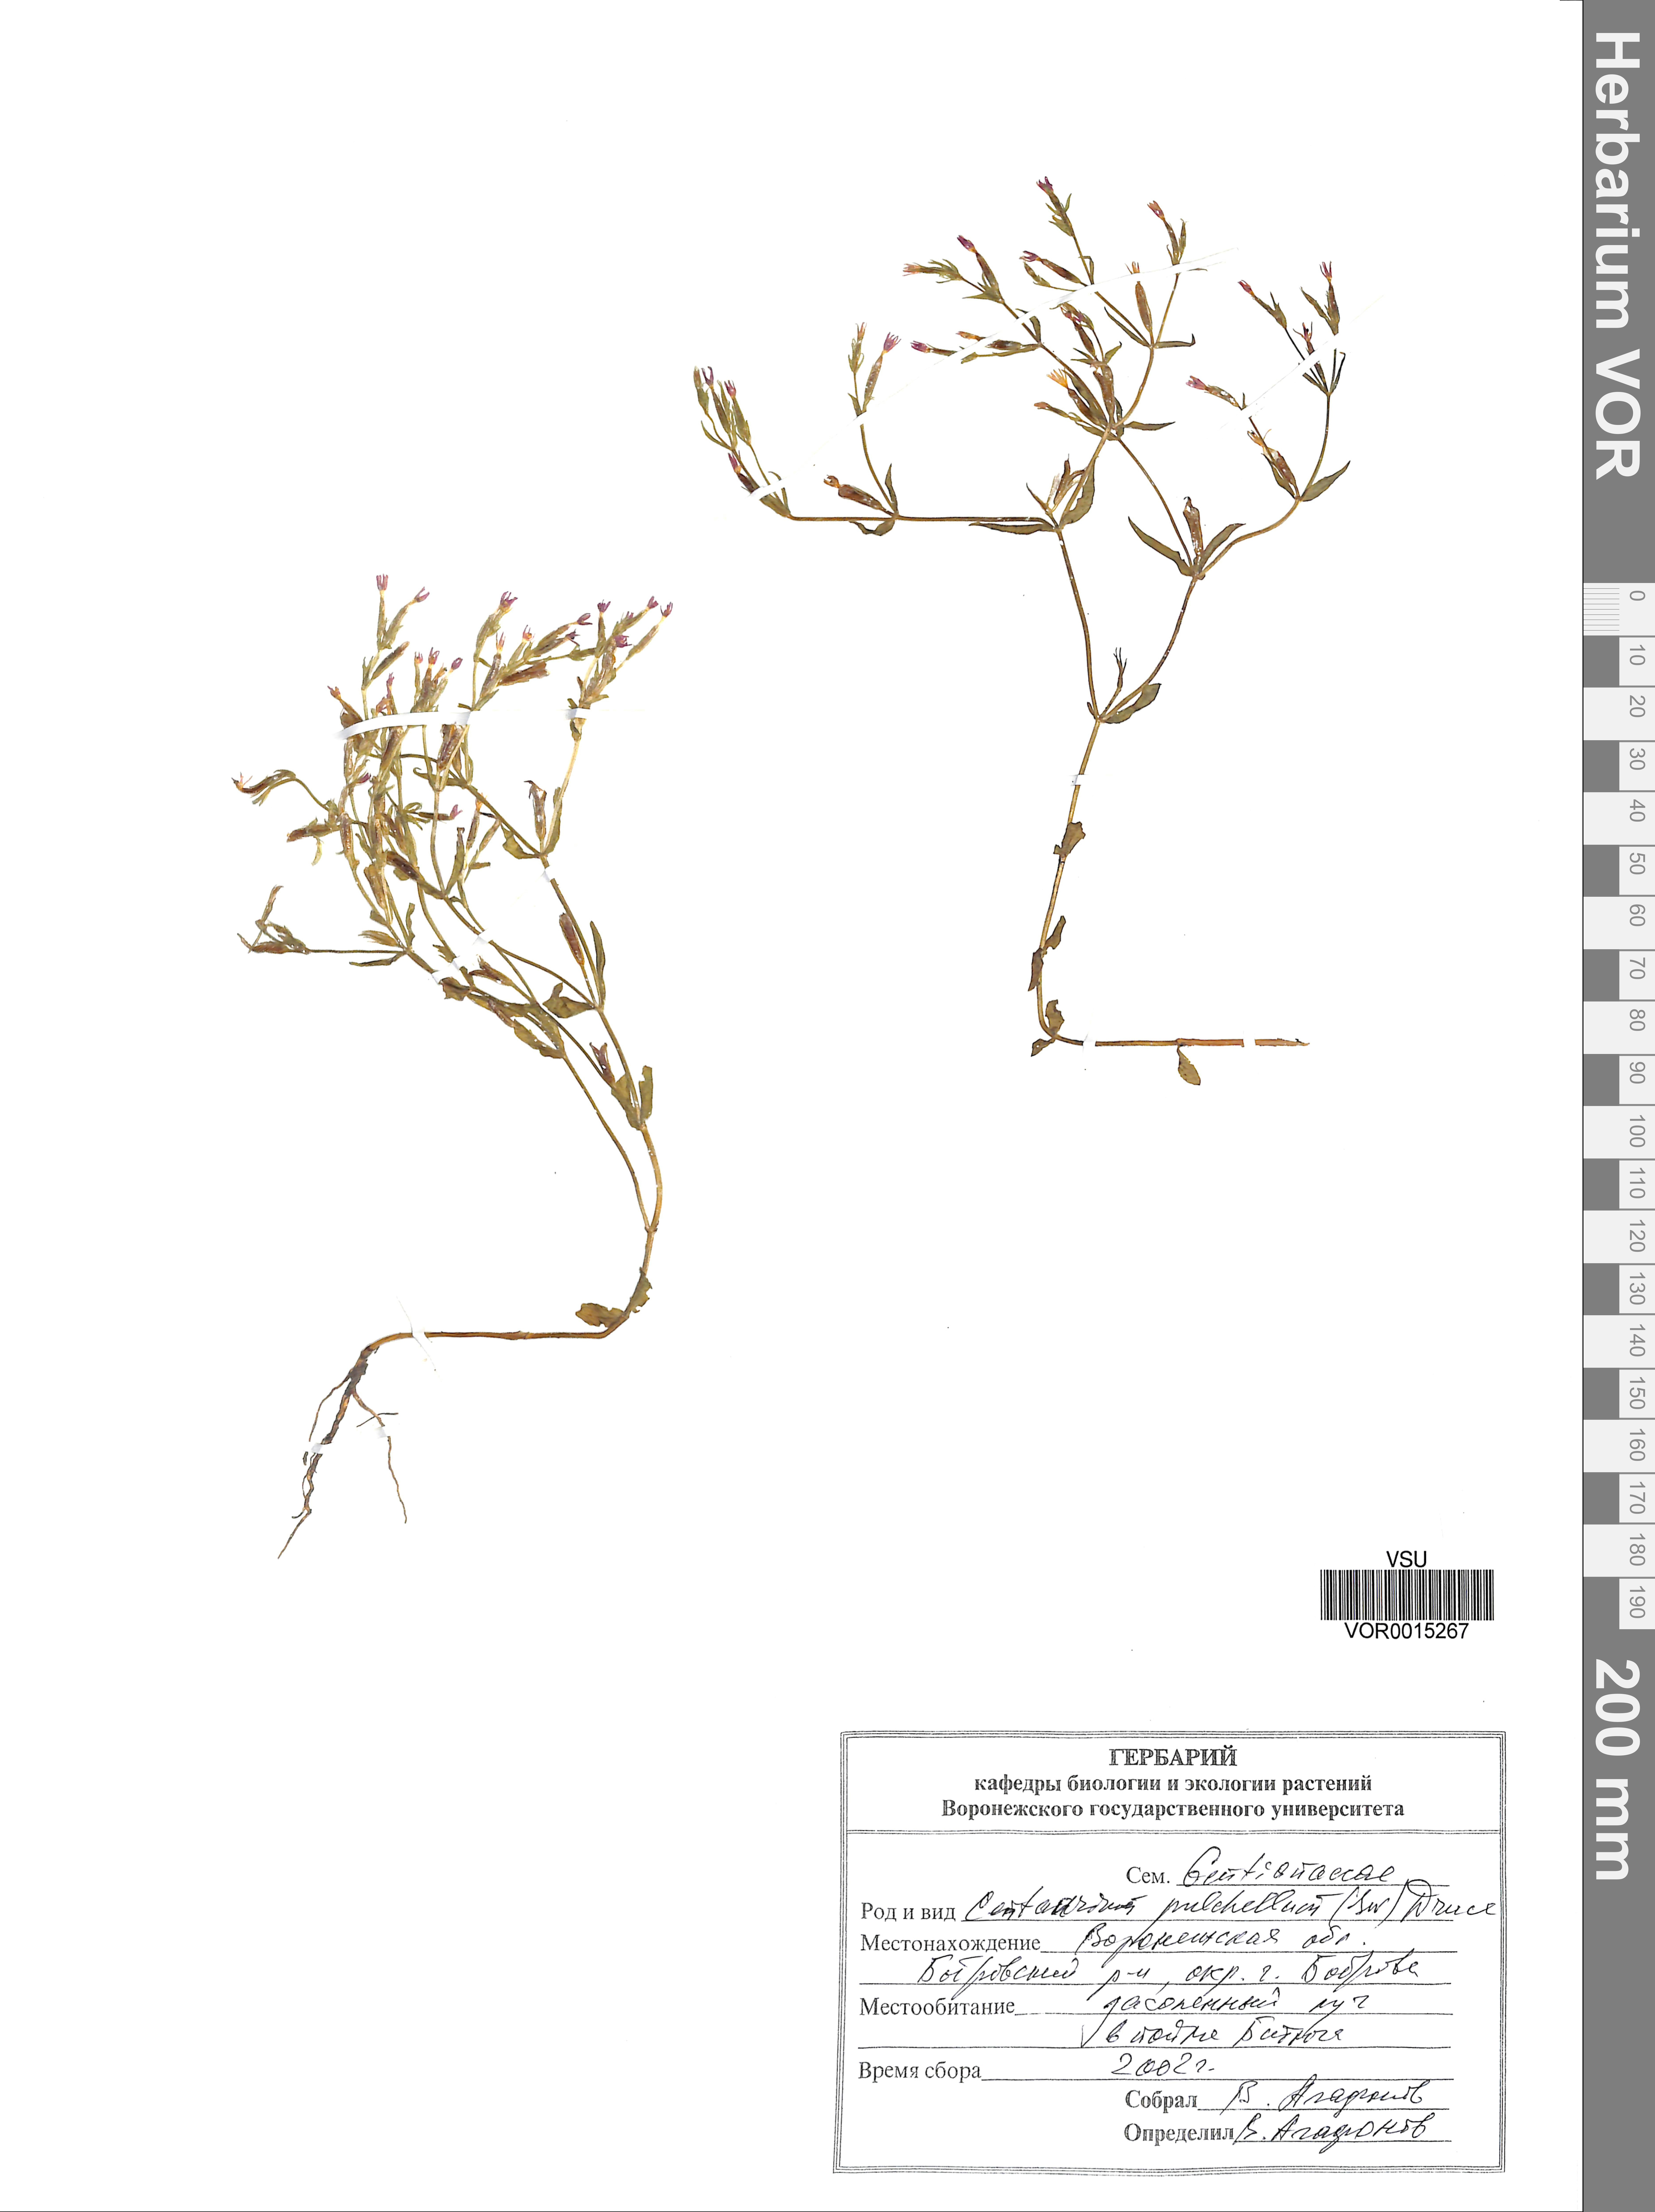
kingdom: Plantae
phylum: Tracheophyta
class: Magnoliopsida
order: Gentianales
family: Gentianaceae
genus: Centaurium
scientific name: Centaurium pulchellum
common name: Lesser centaury
